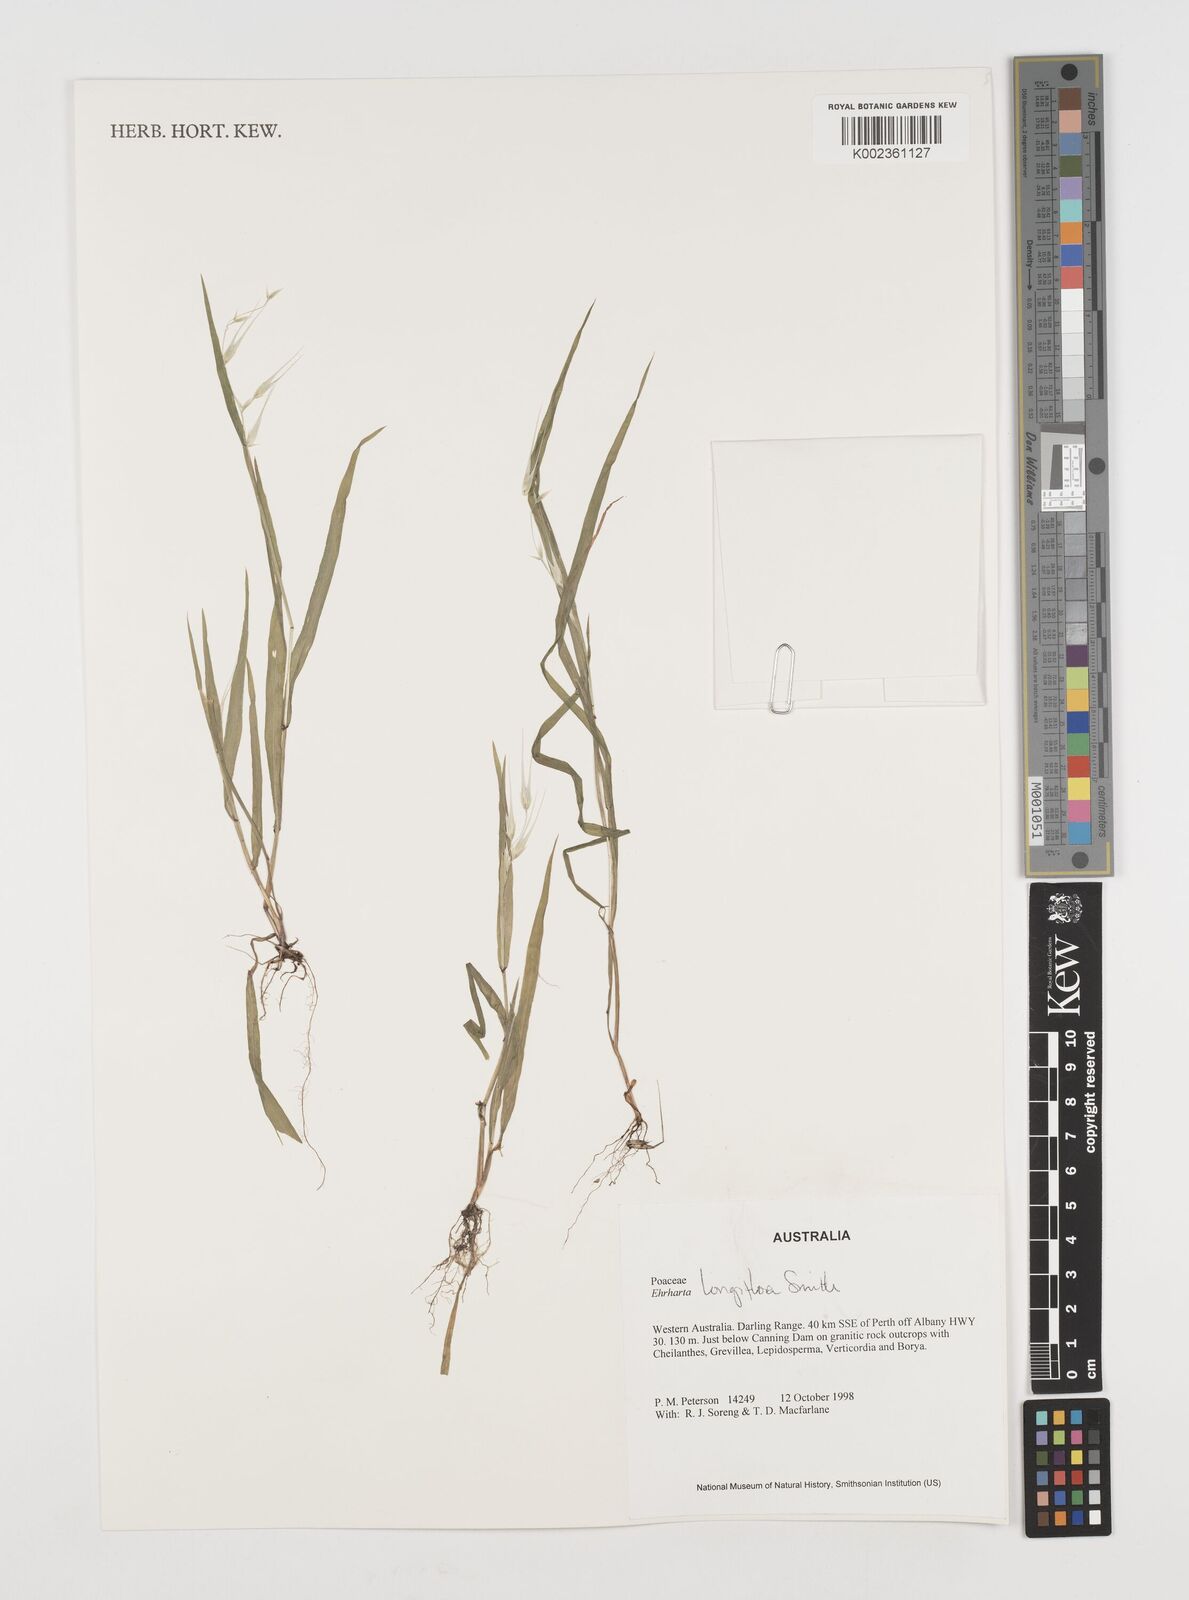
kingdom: Plantae
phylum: Tracheophyta
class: Liliopsida
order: Poales
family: Poaceae
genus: Ehrharta
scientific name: Ehrharta longiflora
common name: Longflowered veldtgrass
